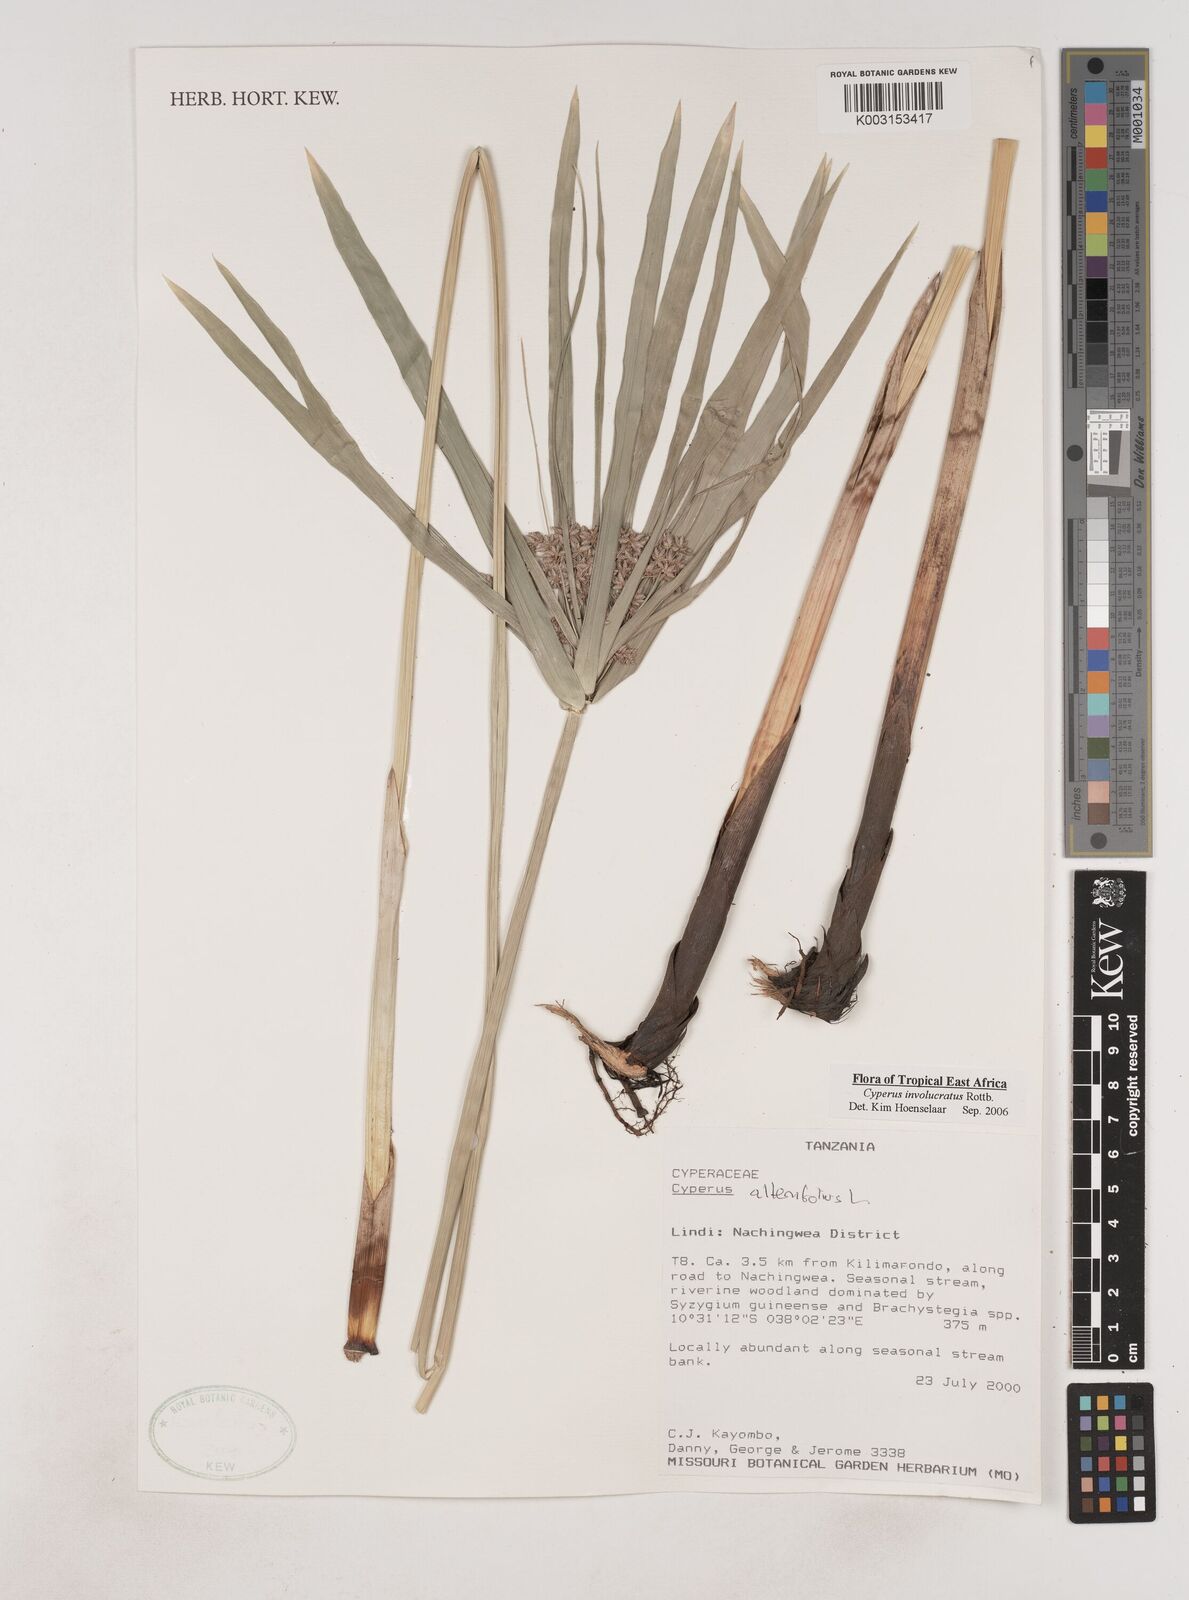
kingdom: Plantae
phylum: Tracheophyta
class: Liliopsida
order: Poales
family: Cyperaceae
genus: Cyperus
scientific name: Cyperus alternifolius
